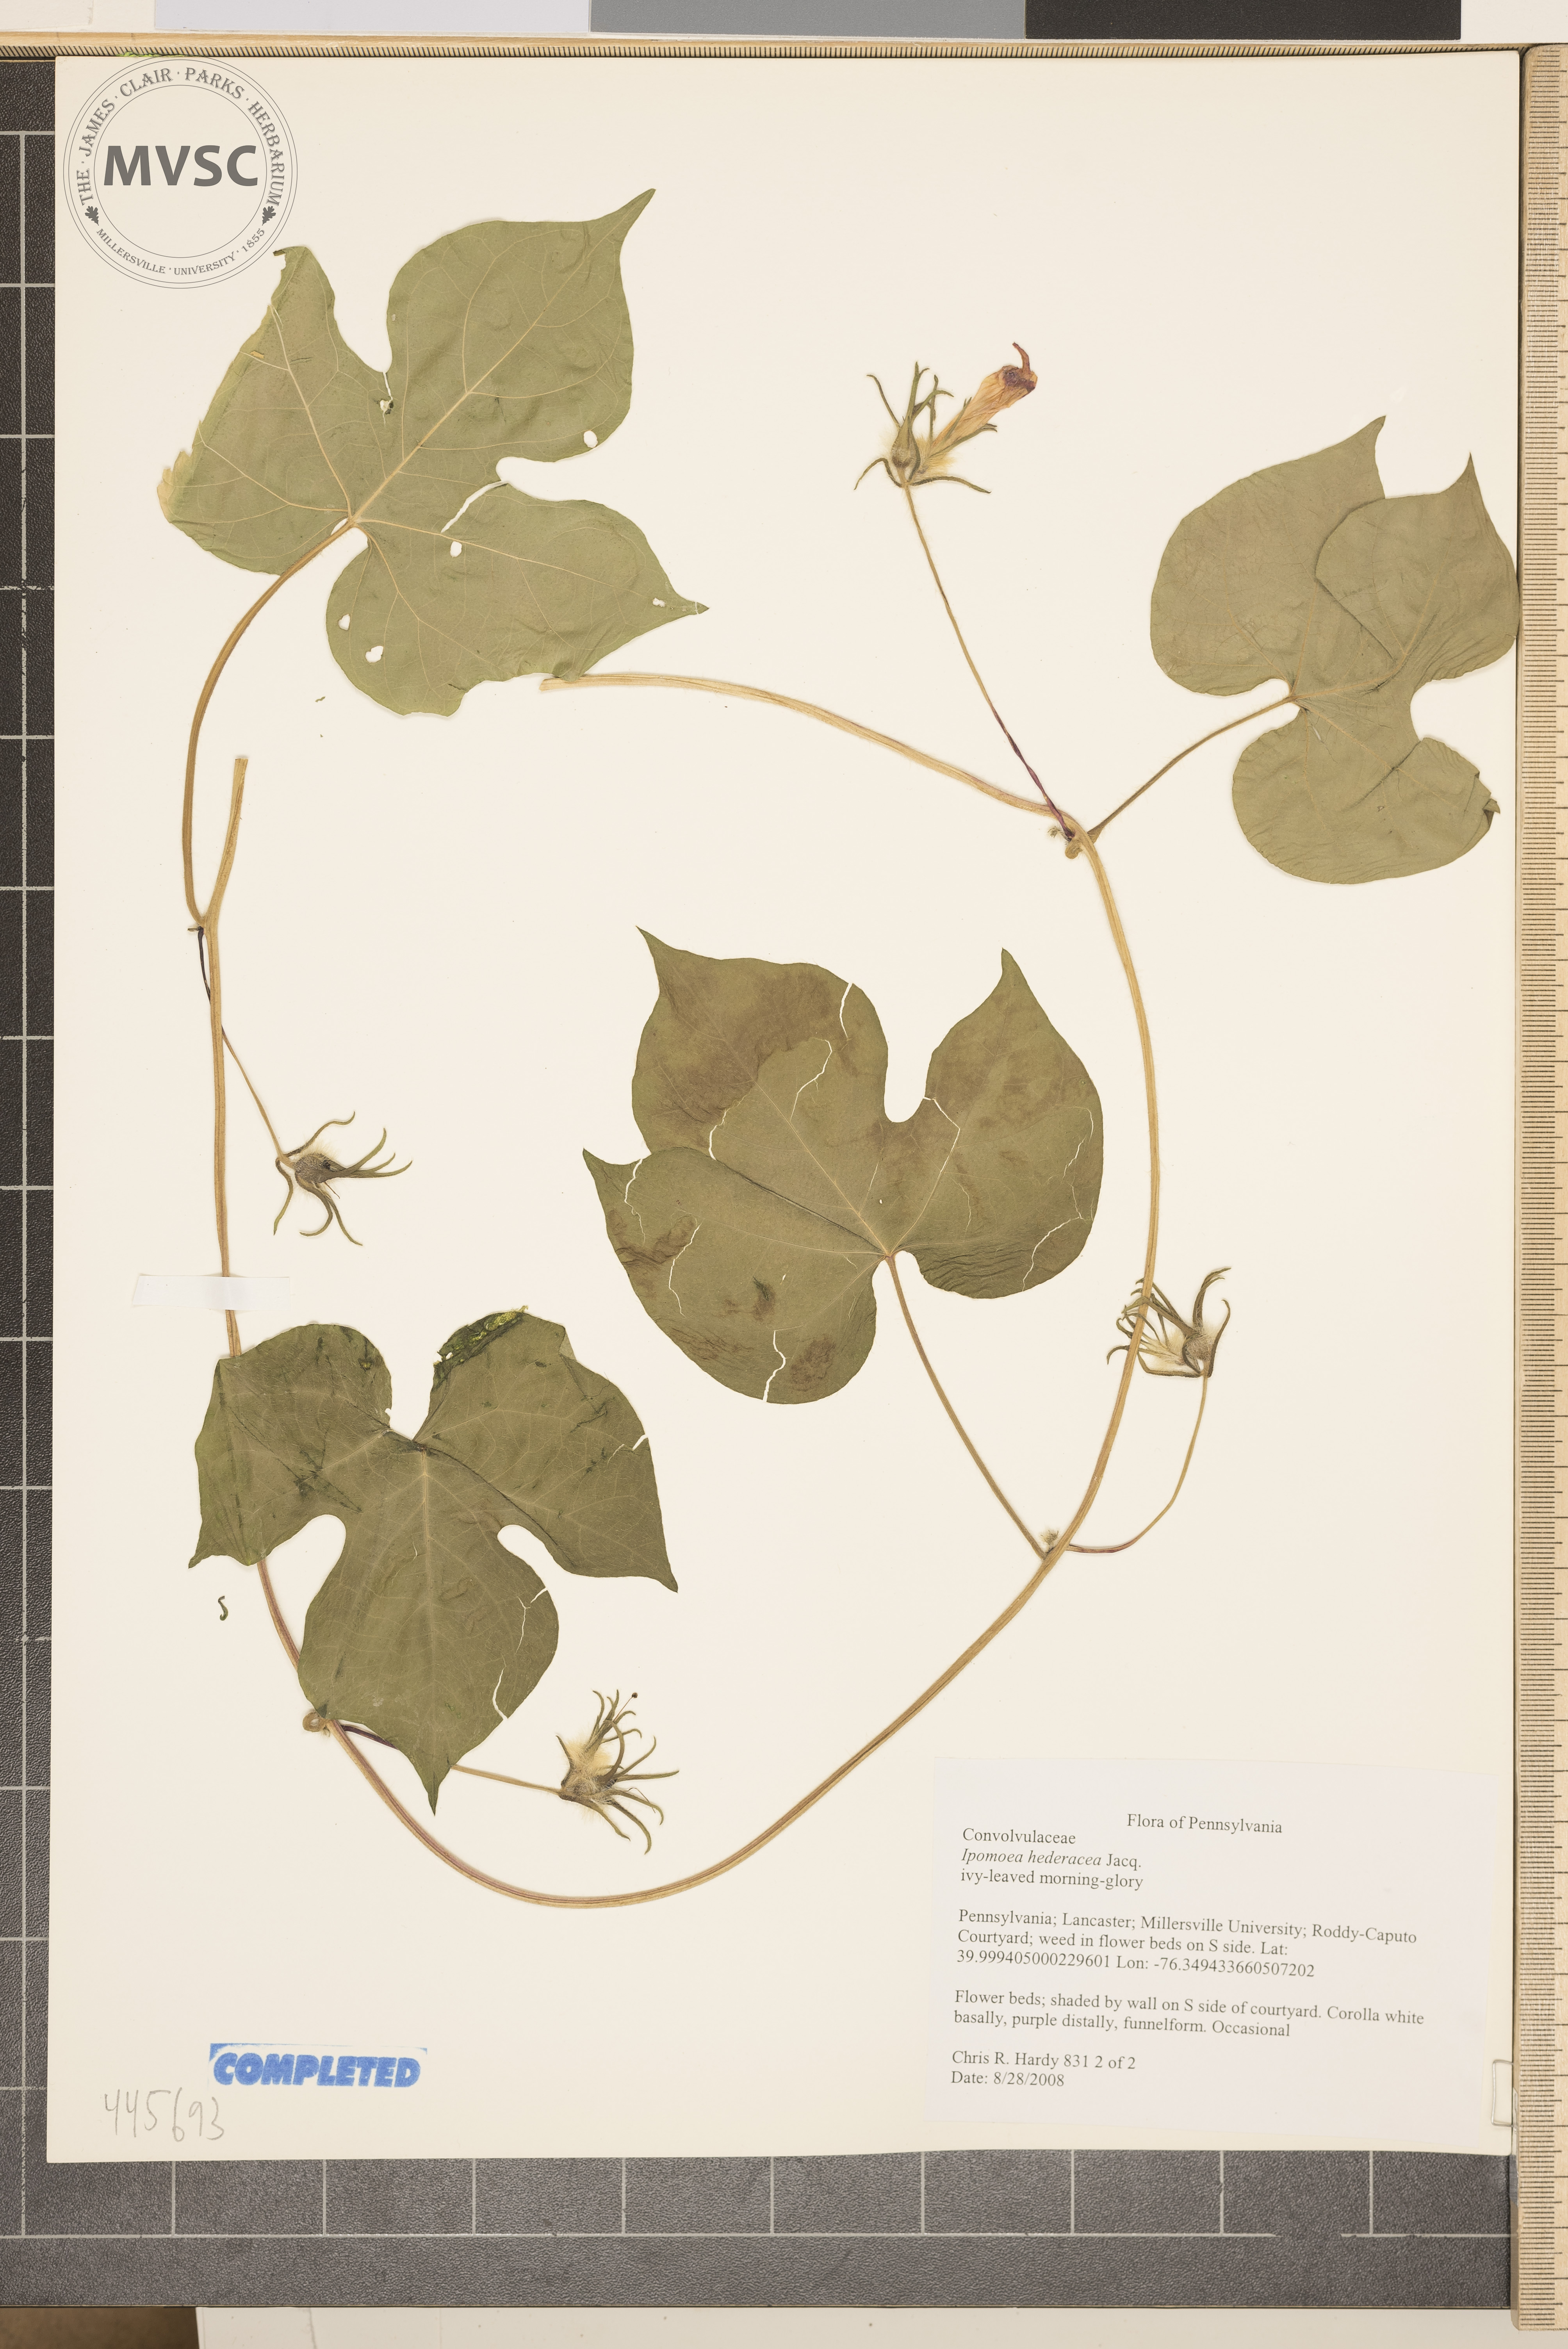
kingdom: Plantae
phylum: Tracheophyta
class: Magnoliopsida
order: Solanales
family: Convolvulaceae
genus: Ipomoea
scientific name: Ipomoea hederacea
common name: Ivy-leaved morning-glory
